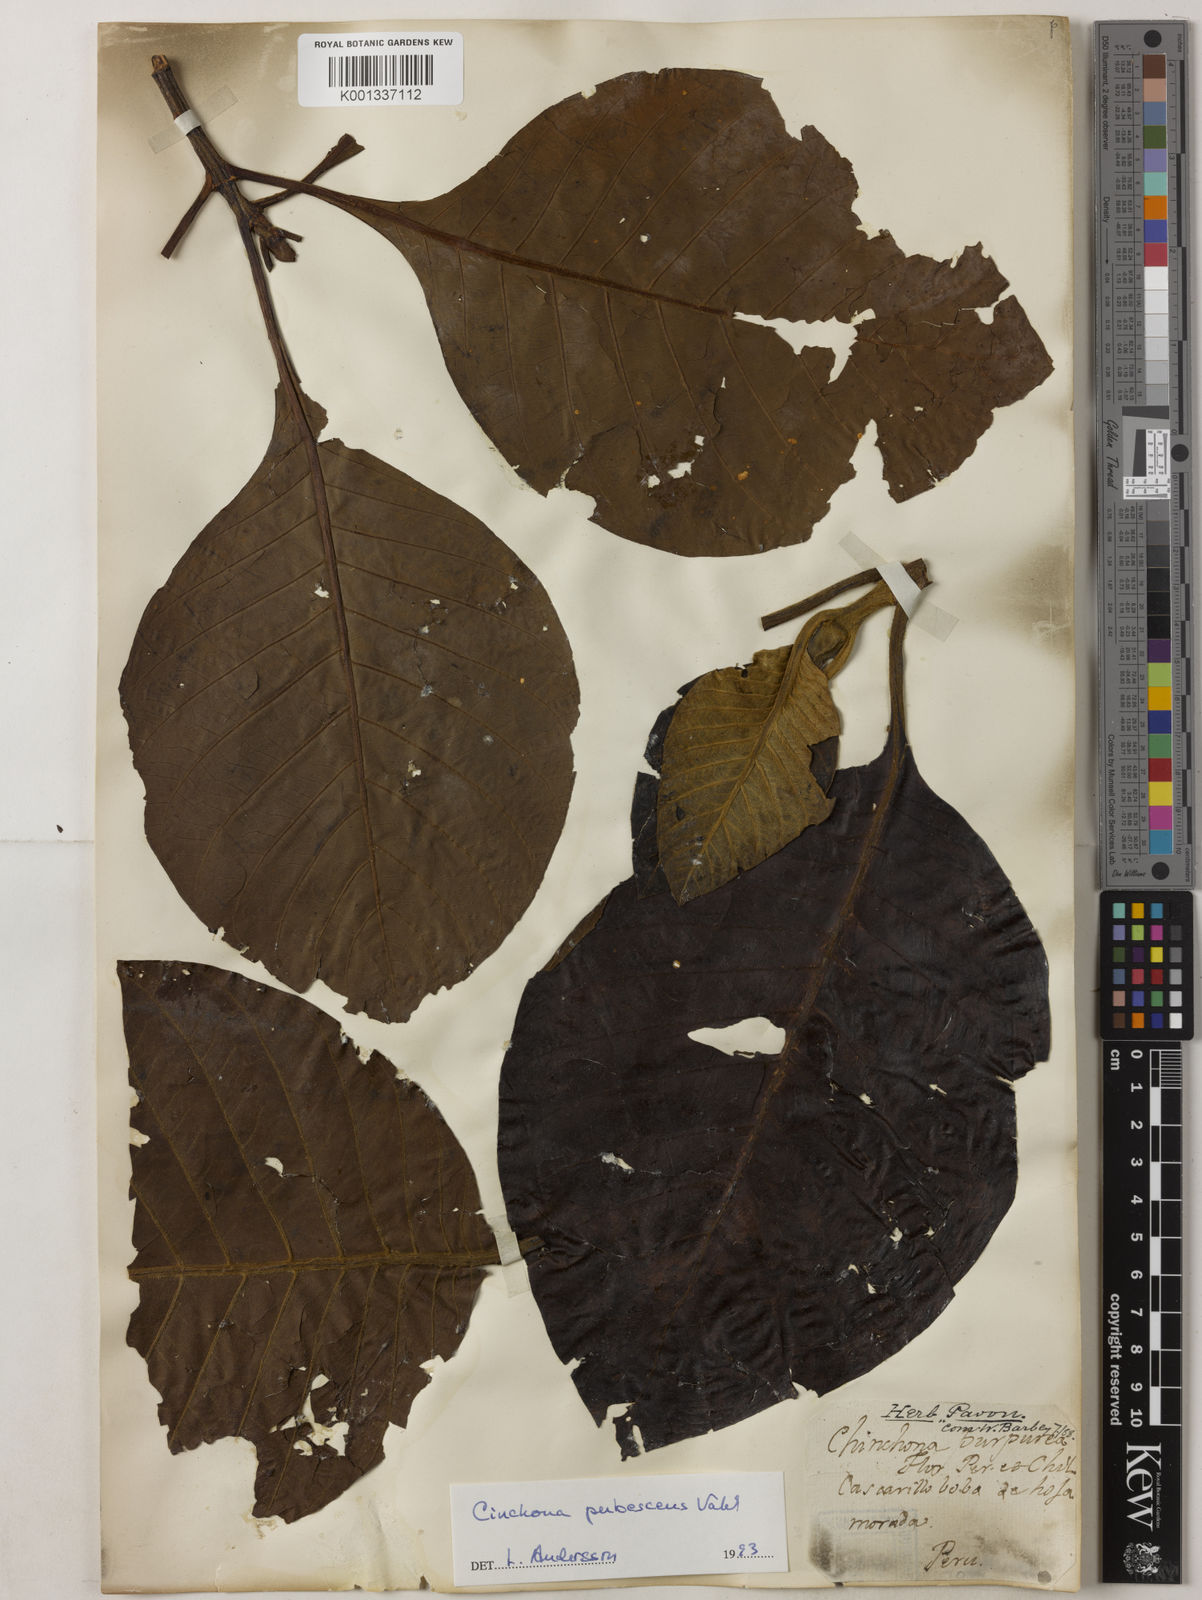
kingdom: Plantae
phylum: Tracheophyta
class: Magnoliopsida
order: Gentianales
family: Rubiaceae
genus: Cinchona
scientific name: Cinchona pubescens
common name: Quinine
